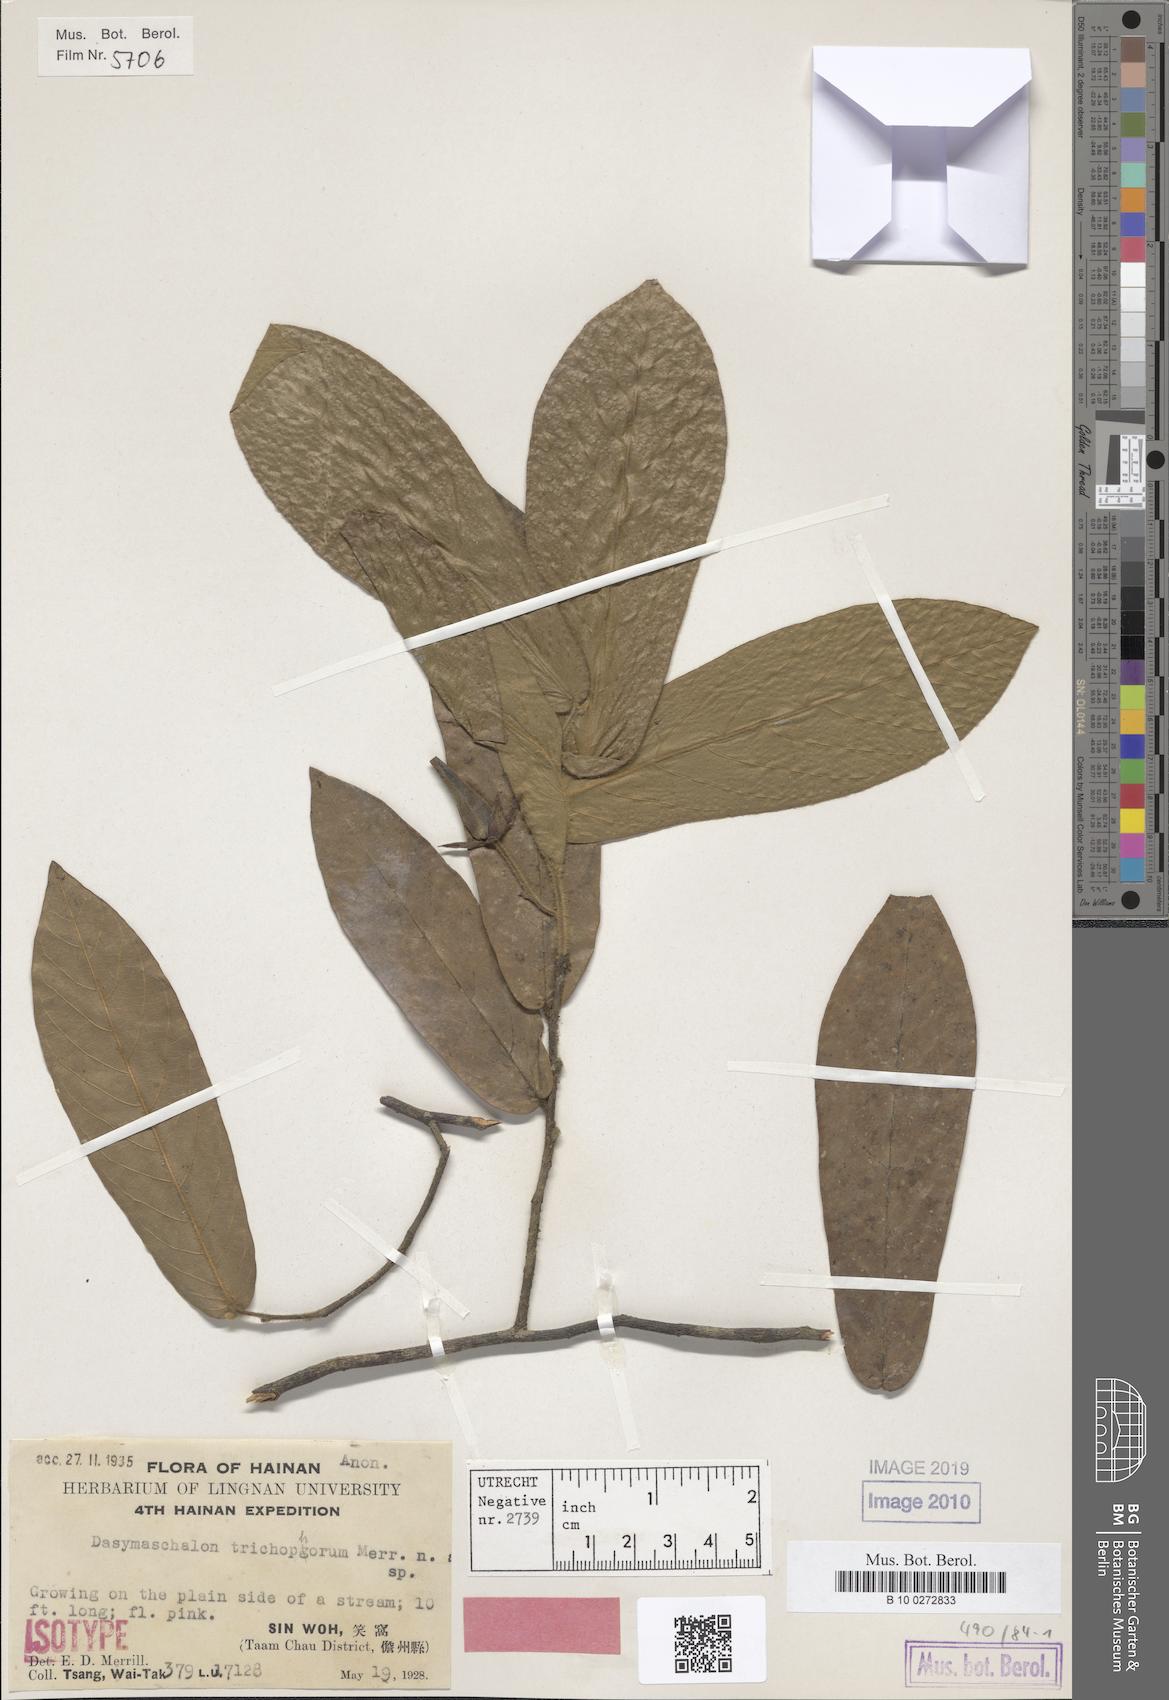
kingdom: Plantae
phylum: Tracheophyta
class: Magnoliopsida
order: Magnoliales
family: Annonaceae
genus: Dasymaschalon
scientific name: Dasymaschalon trichophorum
